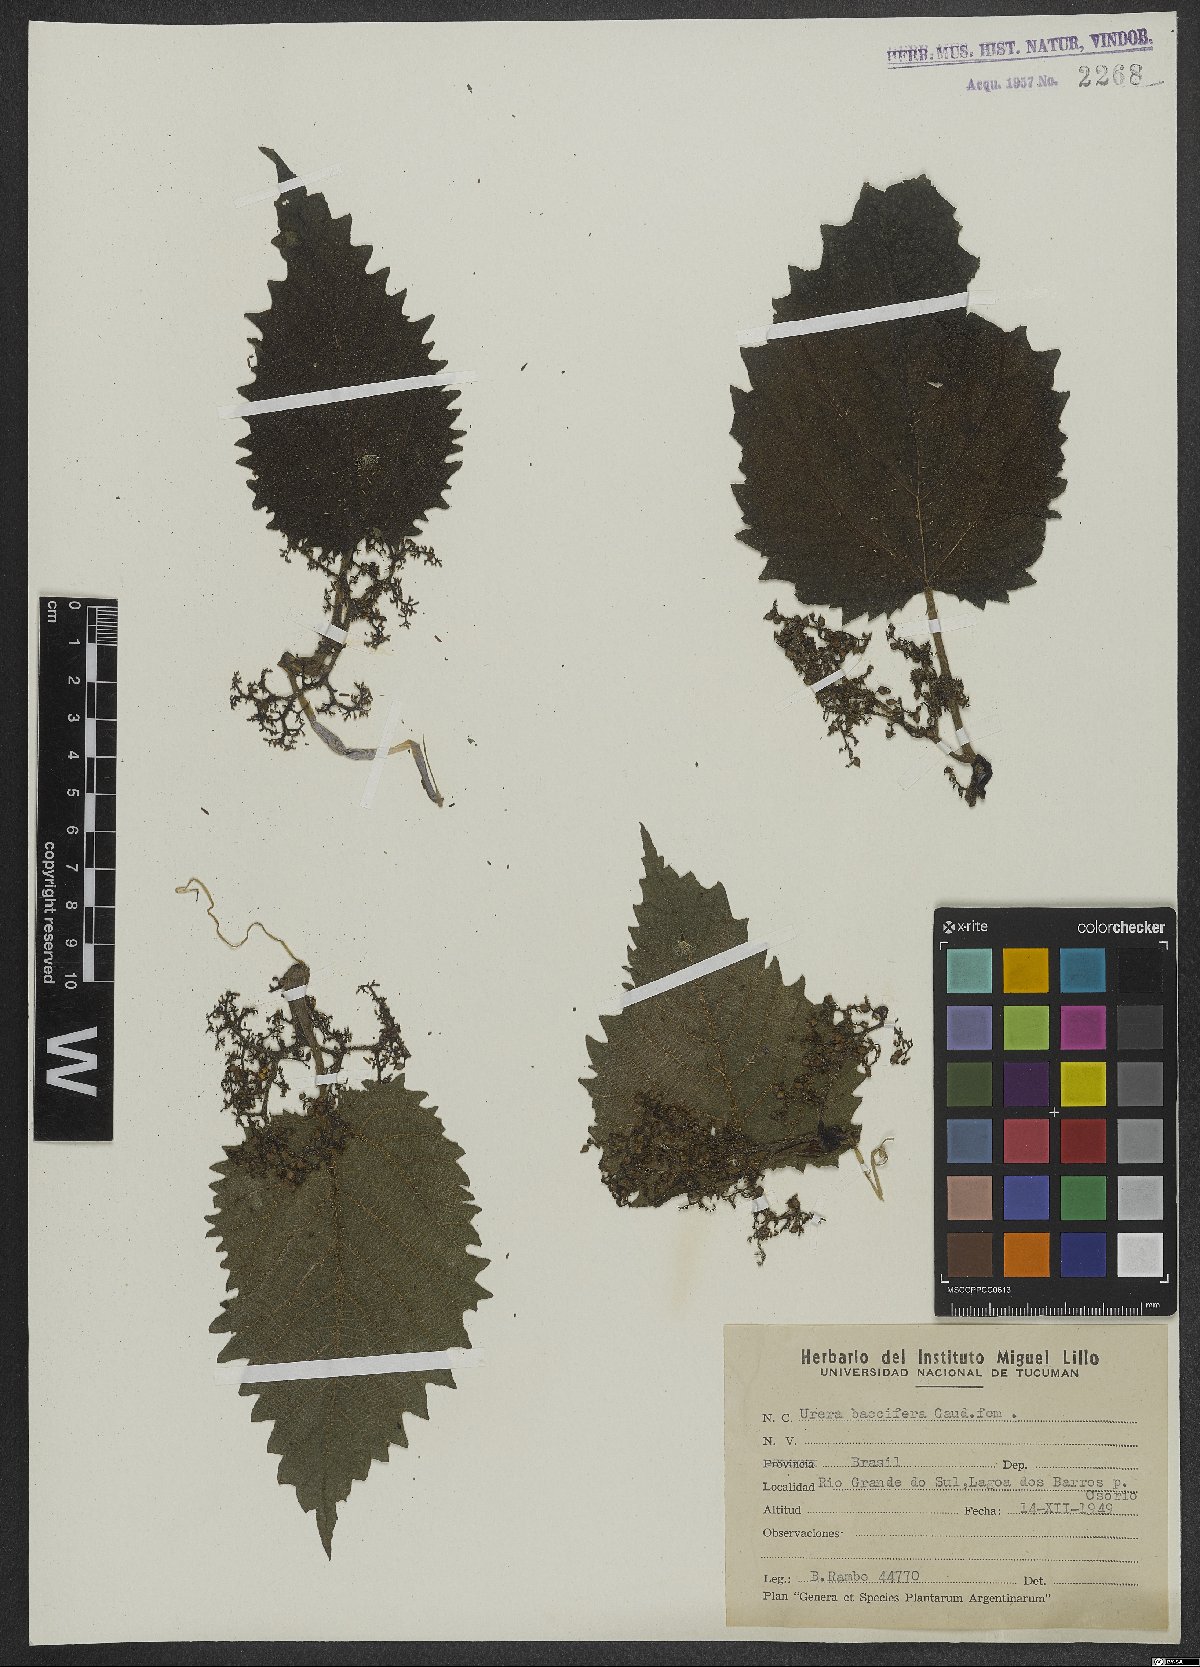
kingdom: Plantae
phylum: Tracheophyta
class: Magnoliopsida
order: Rosales
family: Urticaceae
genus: Urera
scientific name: Urera baccifera
